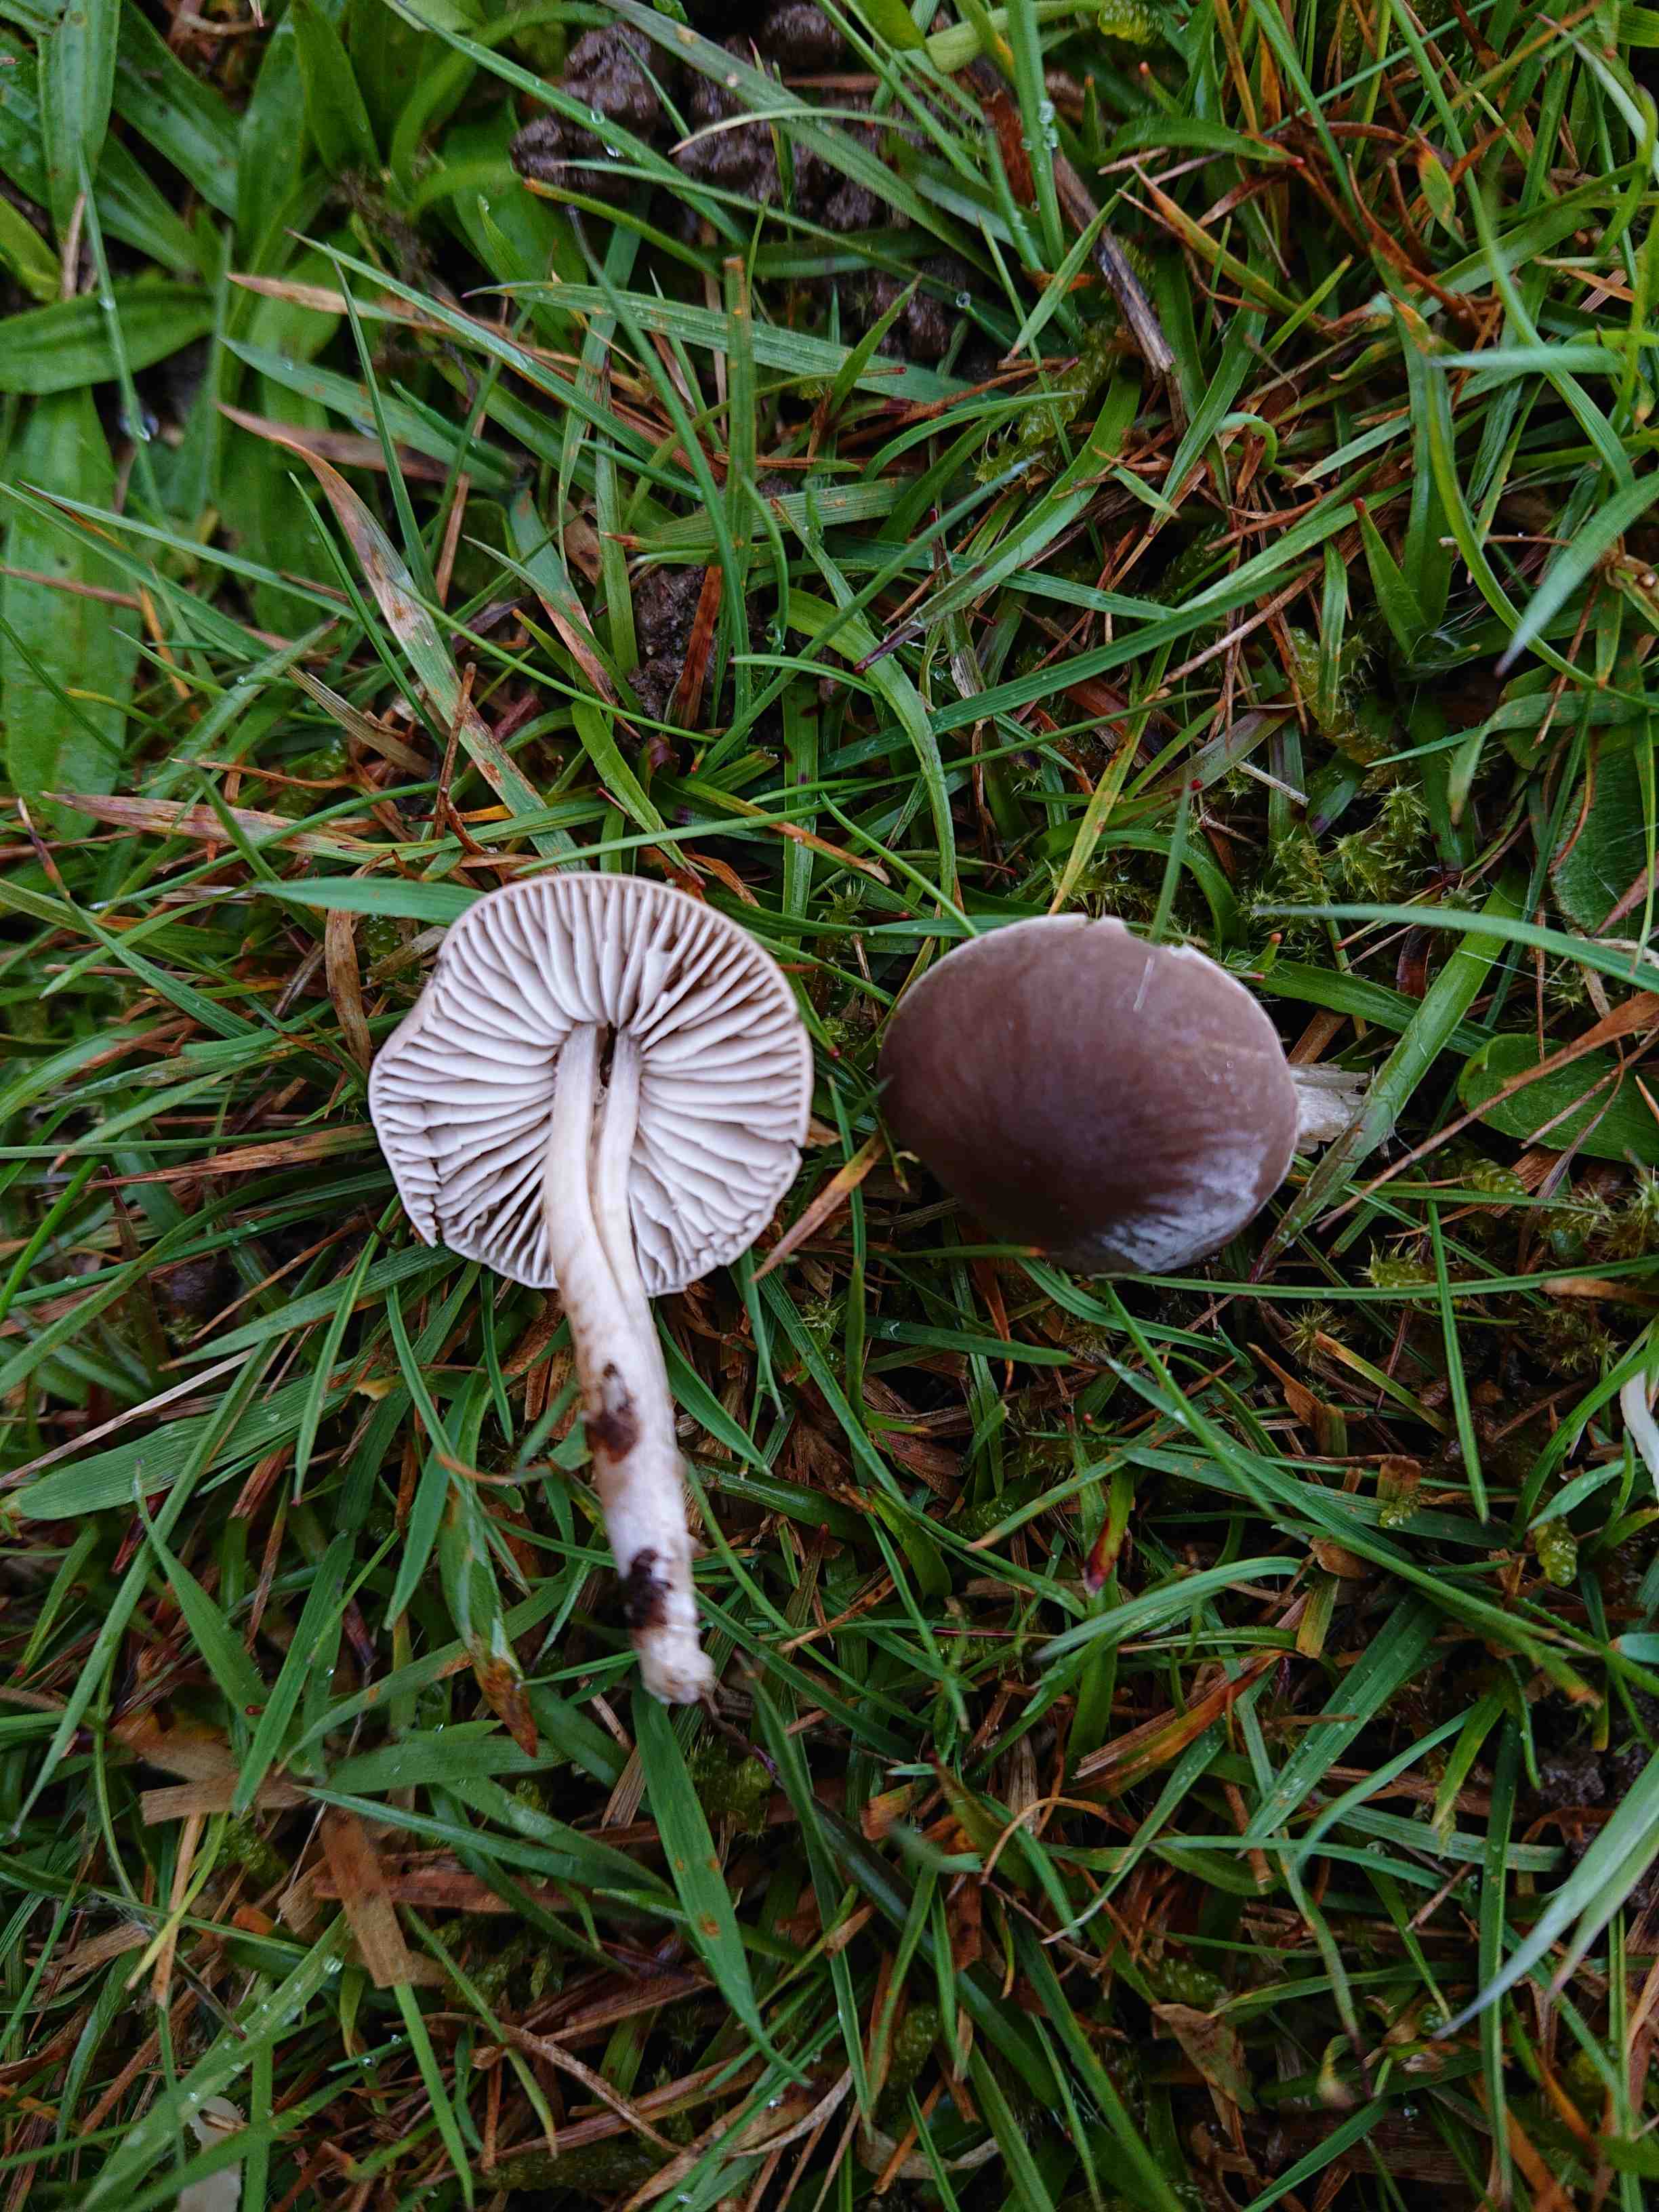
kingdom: Fungi
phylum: Basidiomycota
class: Agaricomycetes
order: Agaricales
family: Tricholomataceae
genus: Dermoloma
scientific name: Dermoloma cuneifolium
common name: eng-nonnehat
